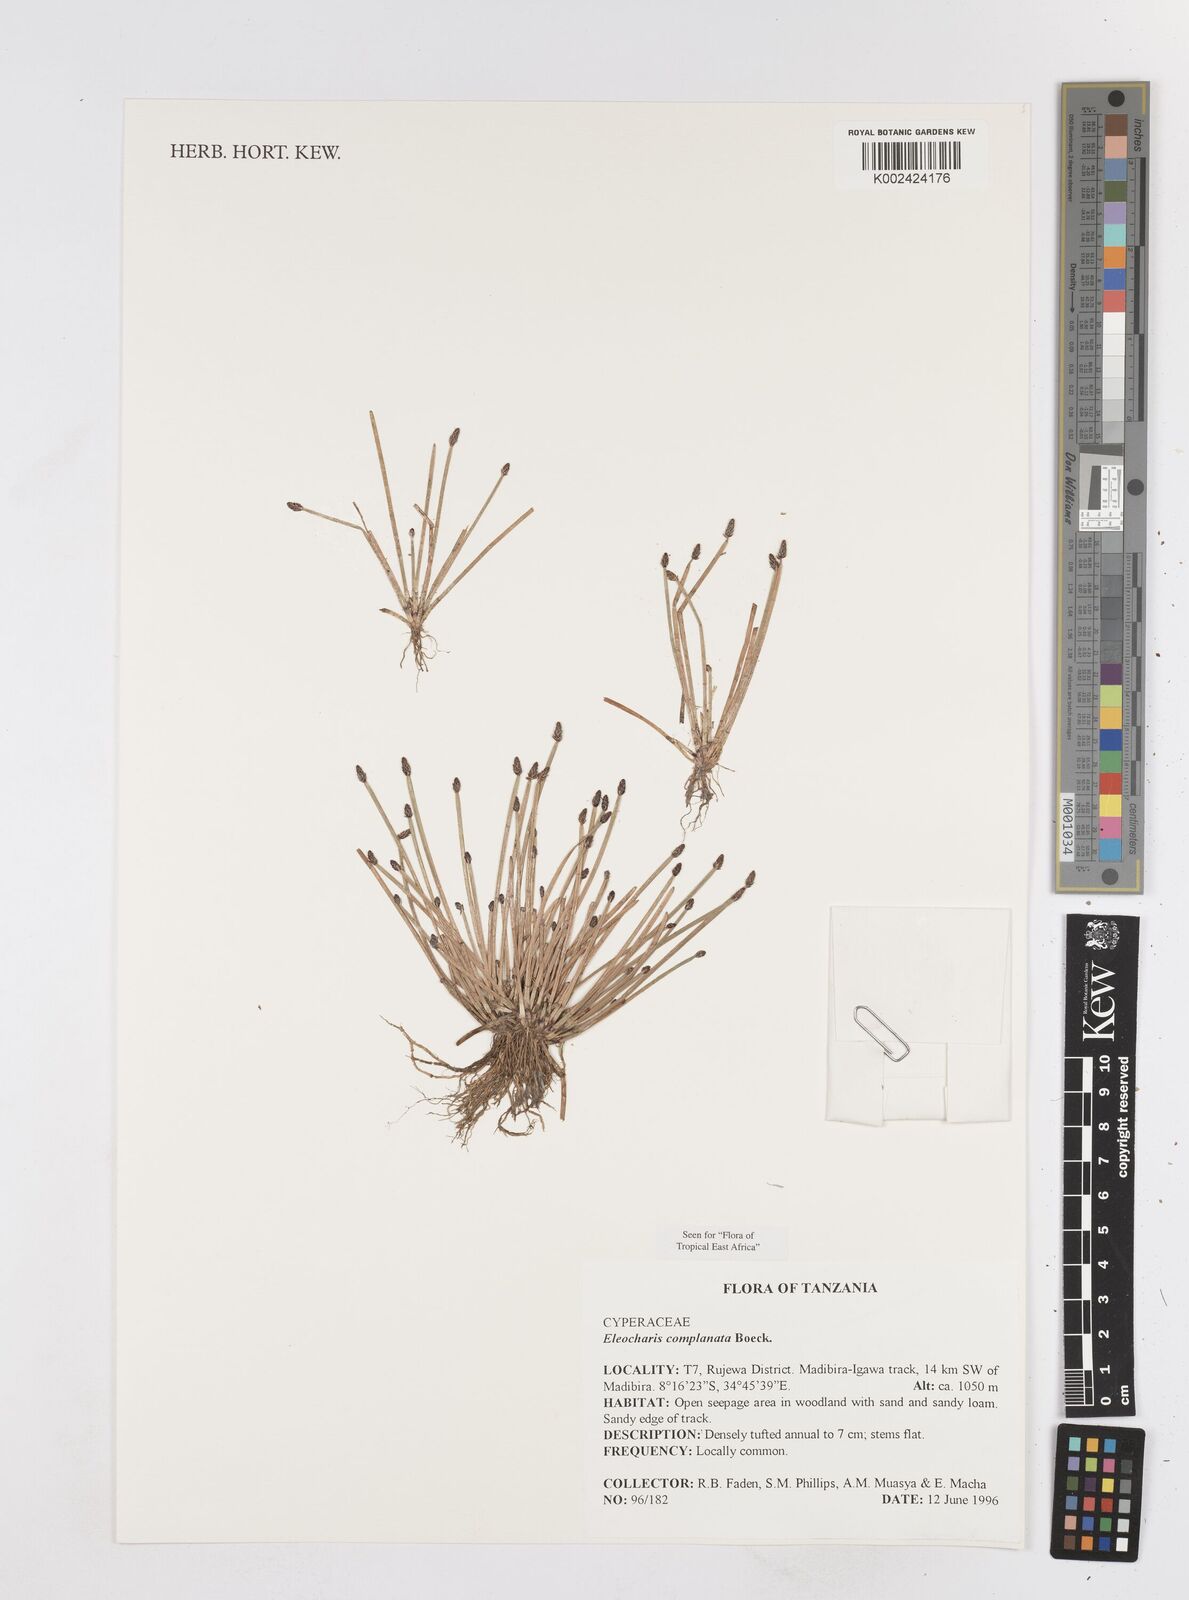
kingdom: Plantae
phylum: Tracheophyta
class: Liliopsida
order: Poales
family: Cyperaceae
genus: Eleocharis
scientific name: Eleocharis complanata
